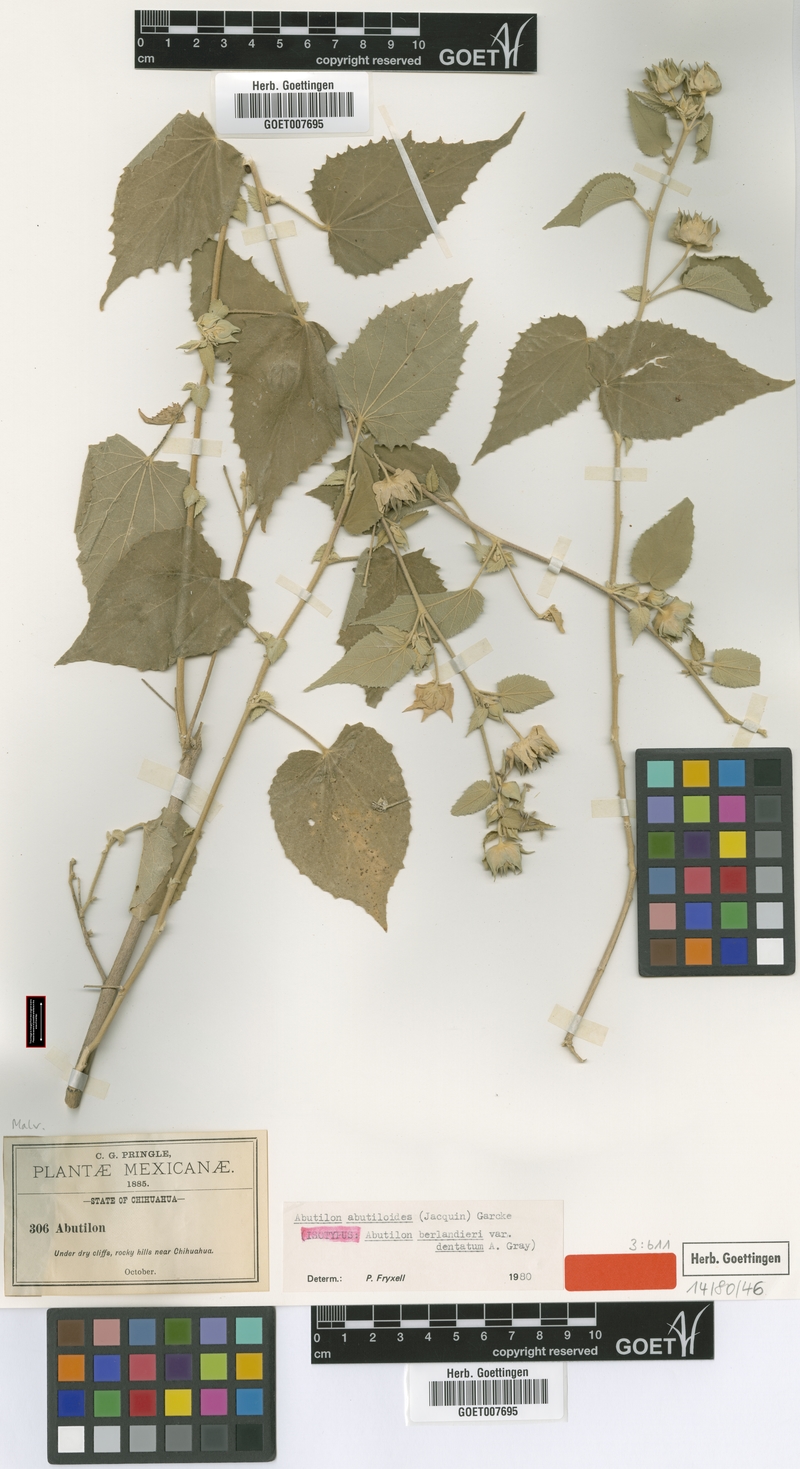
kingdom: Plantae
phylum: Tracheophyta
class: Magnoliopsida
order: Malvales
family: Malvaceae
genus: Abutilon
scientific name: Abutilon abutiloides
